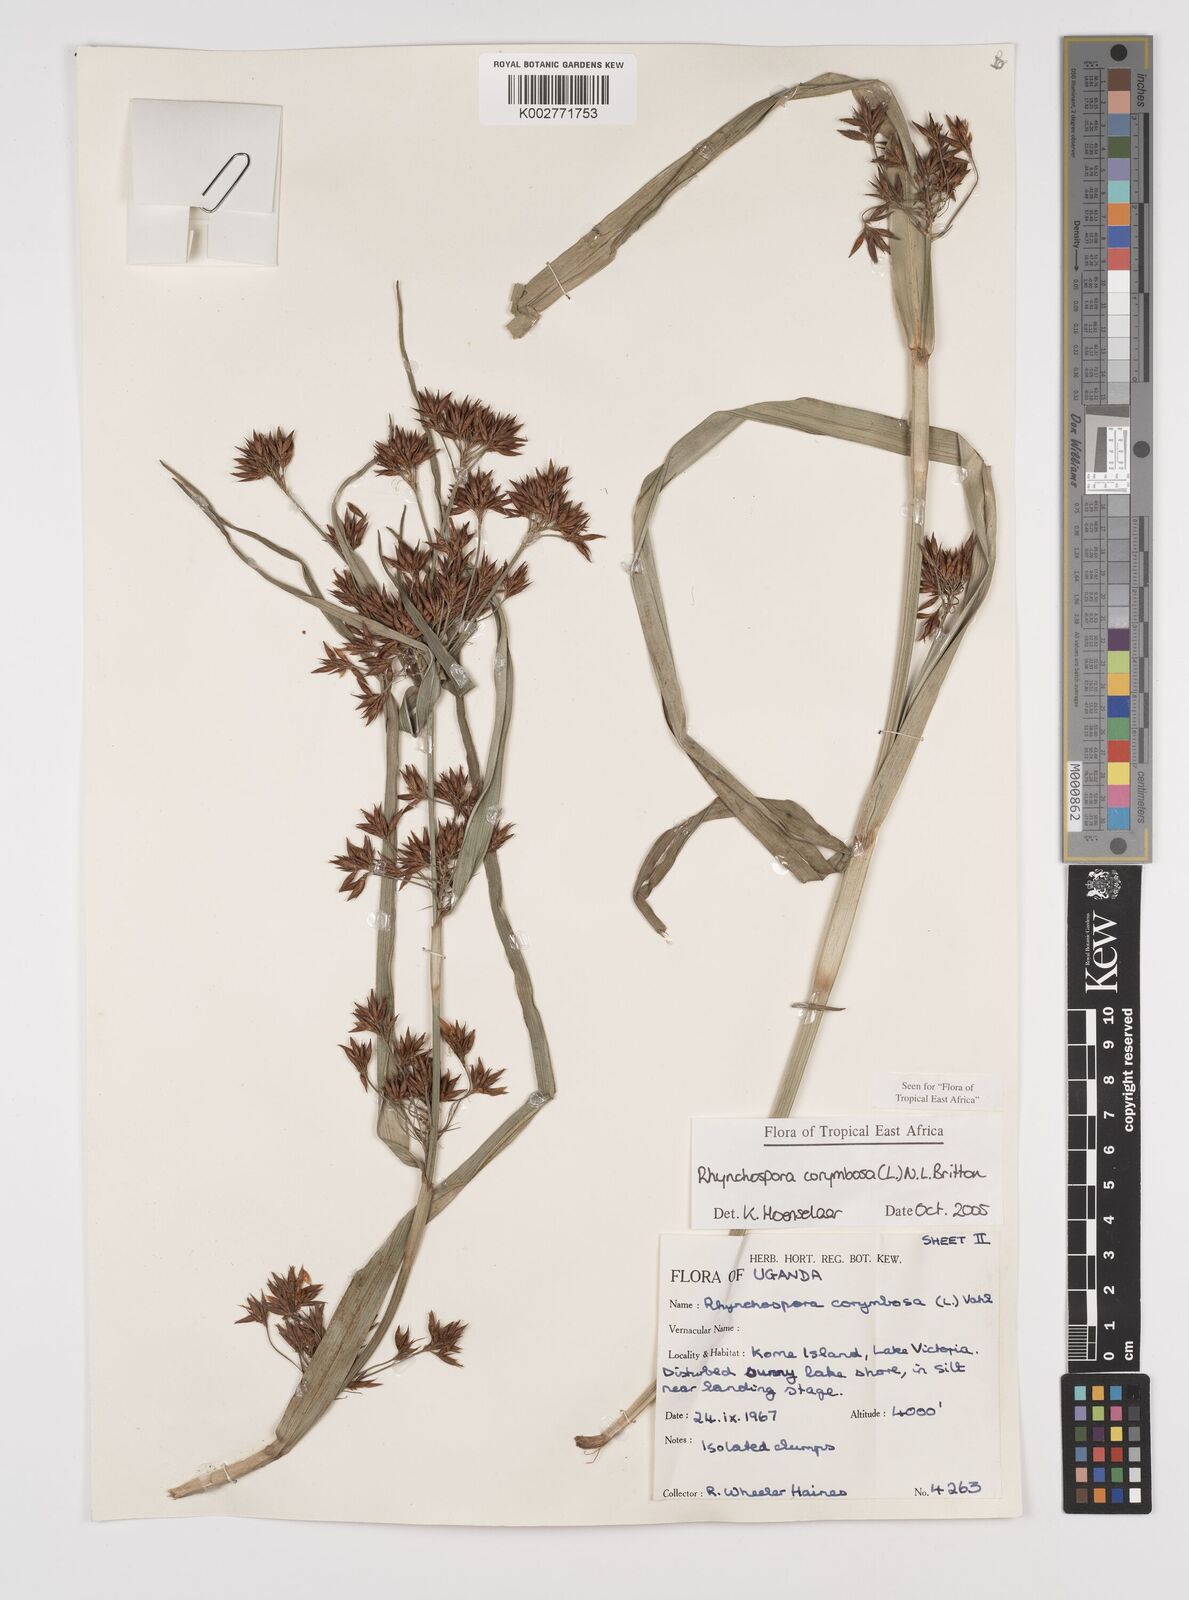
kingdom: Plantae
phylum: Tracheophyta
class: Liliopsida
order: Poales
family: Cyperaceae
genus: Rhynchospora
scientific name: Rhynchospora corymbosa
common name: Golden beak sedge
